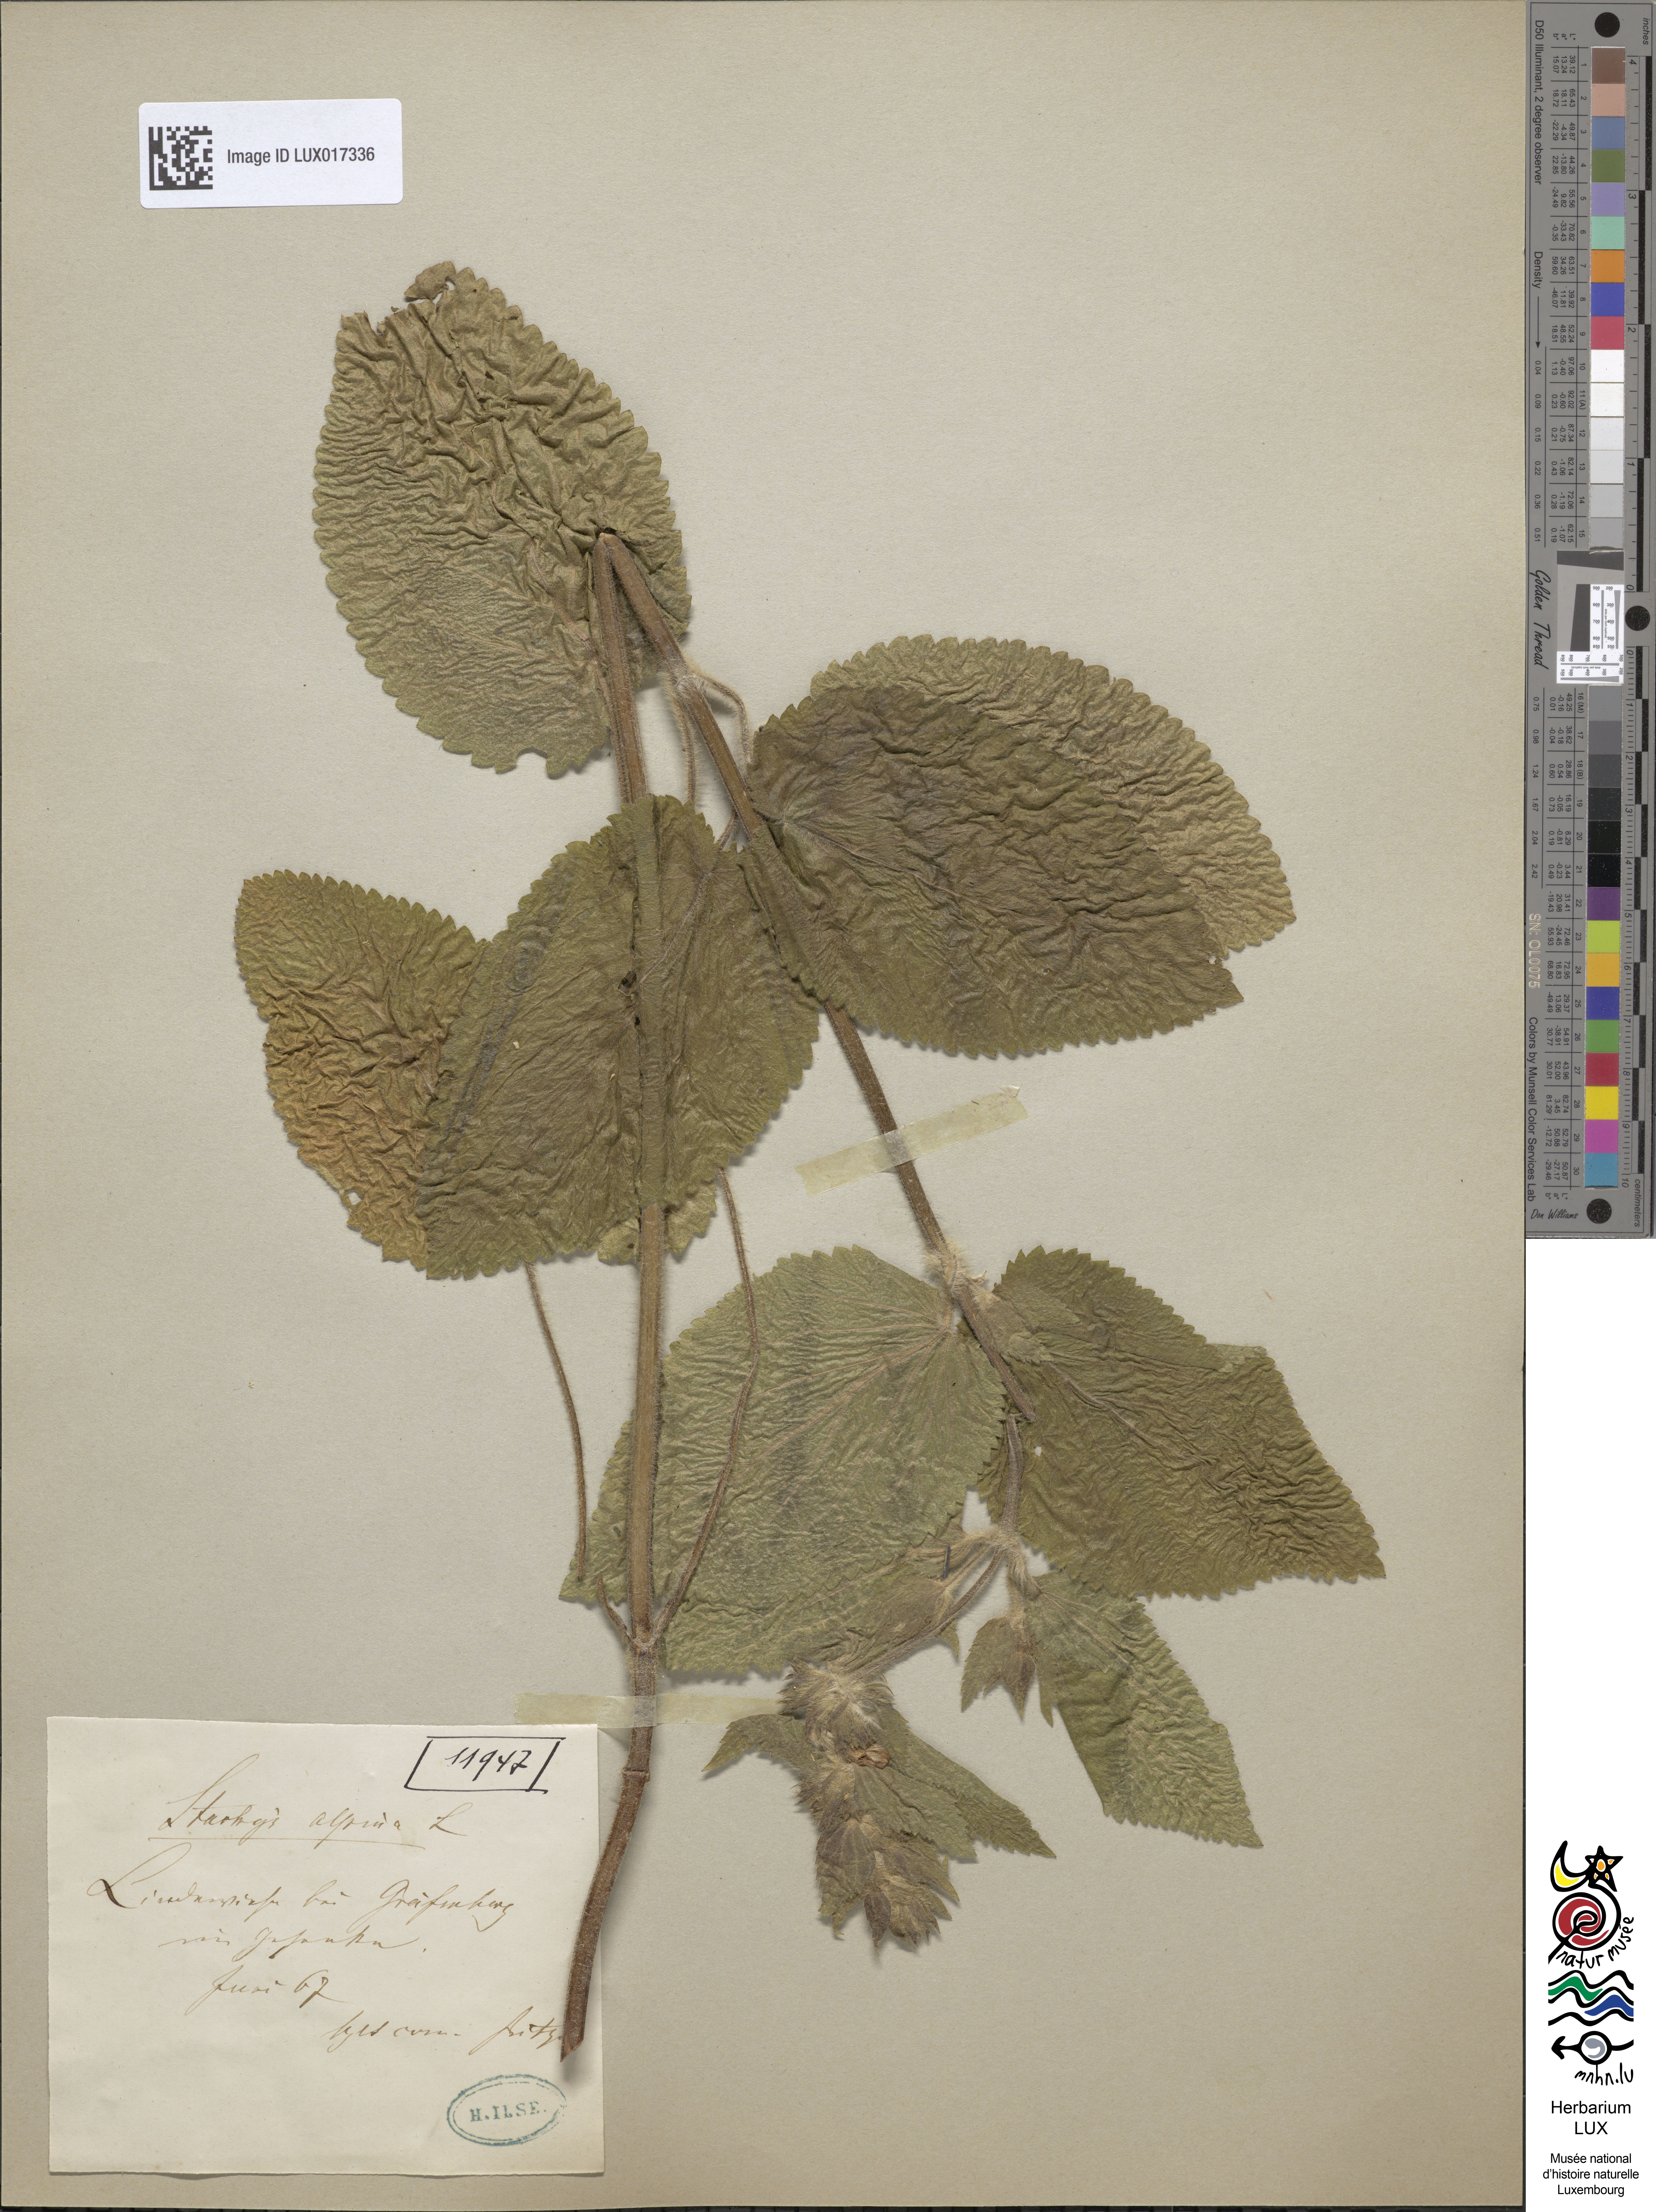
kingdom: Plantae
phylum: Tracheophyta
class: Magnoliopsida
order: Lamiales
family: Lamiaceae
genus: Stachys
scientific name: Stachys alpina
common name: Limestone woundwort
